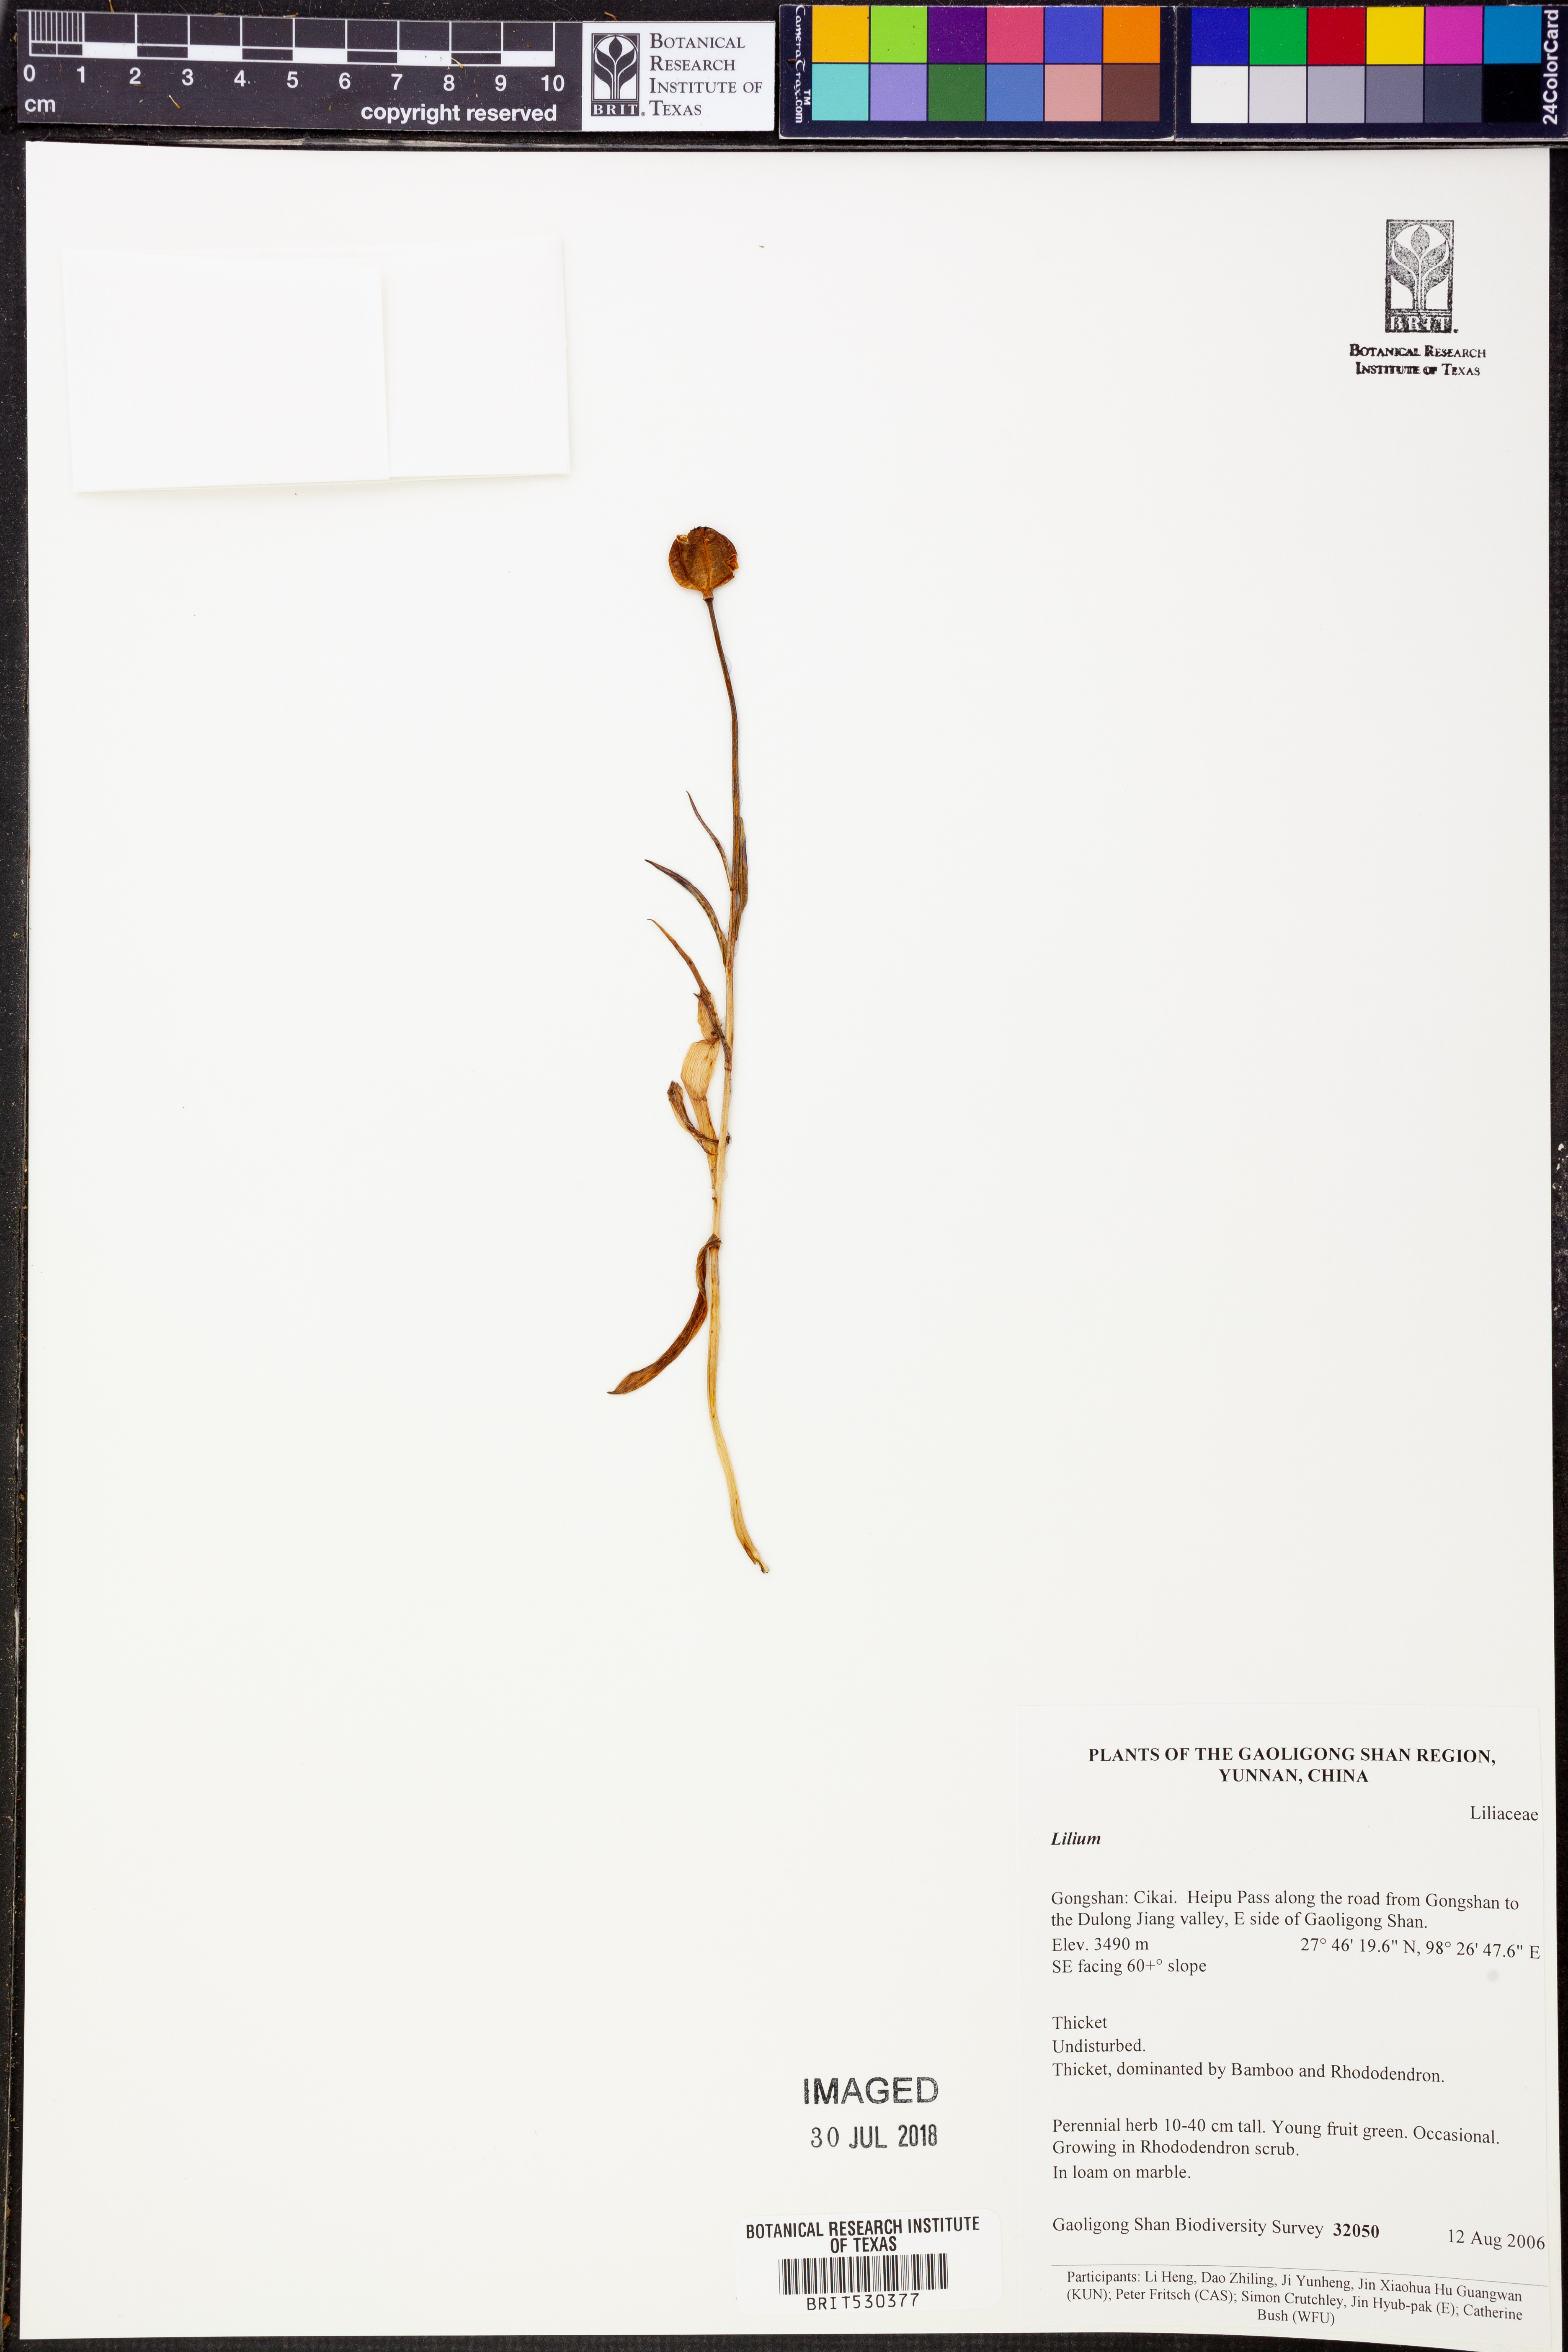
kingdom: Plantae
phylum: Tracheophyta
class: Liliopsida
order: Liliales
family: Liliaceae
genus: Lilium
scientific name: Lilium
